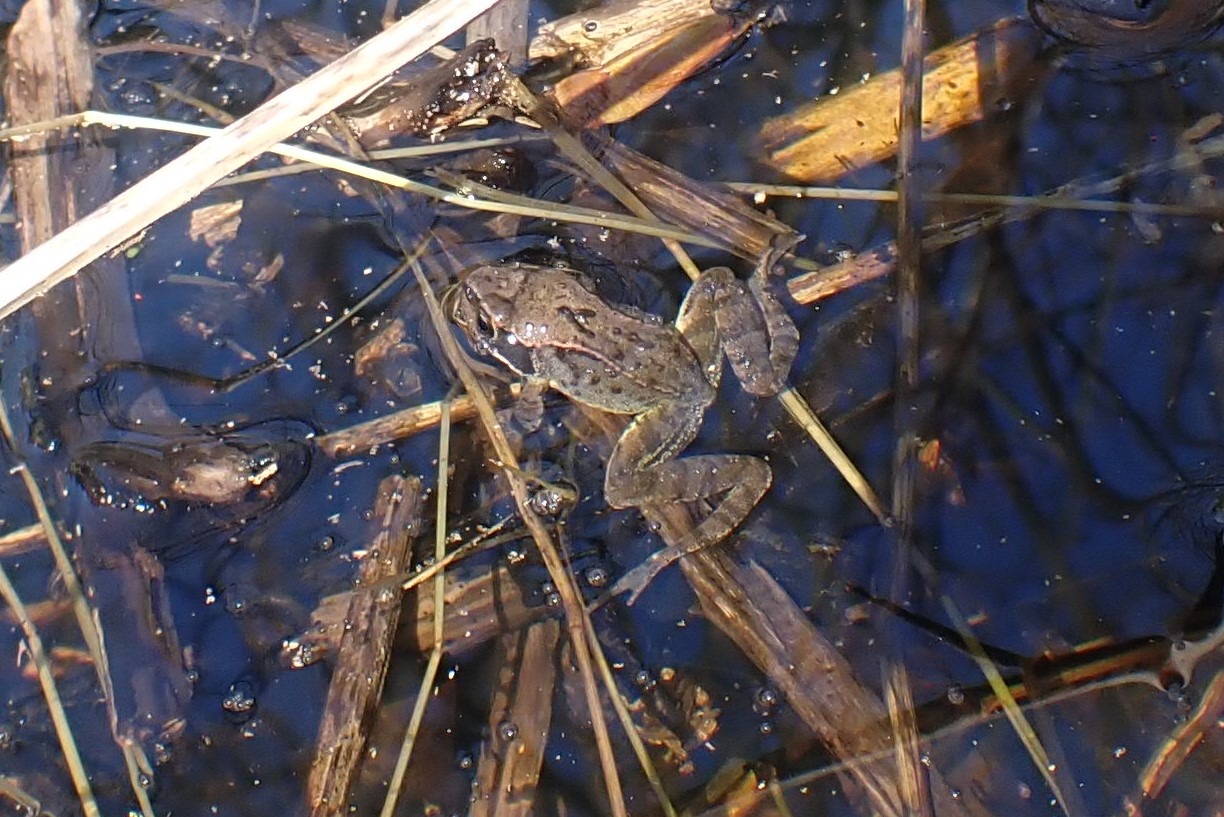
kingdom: Animalia
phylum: Chordata
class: Amphibia
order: Anura
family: Ranidae
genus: Rana
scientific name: Rana temporaria
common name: Butsnudet frø
